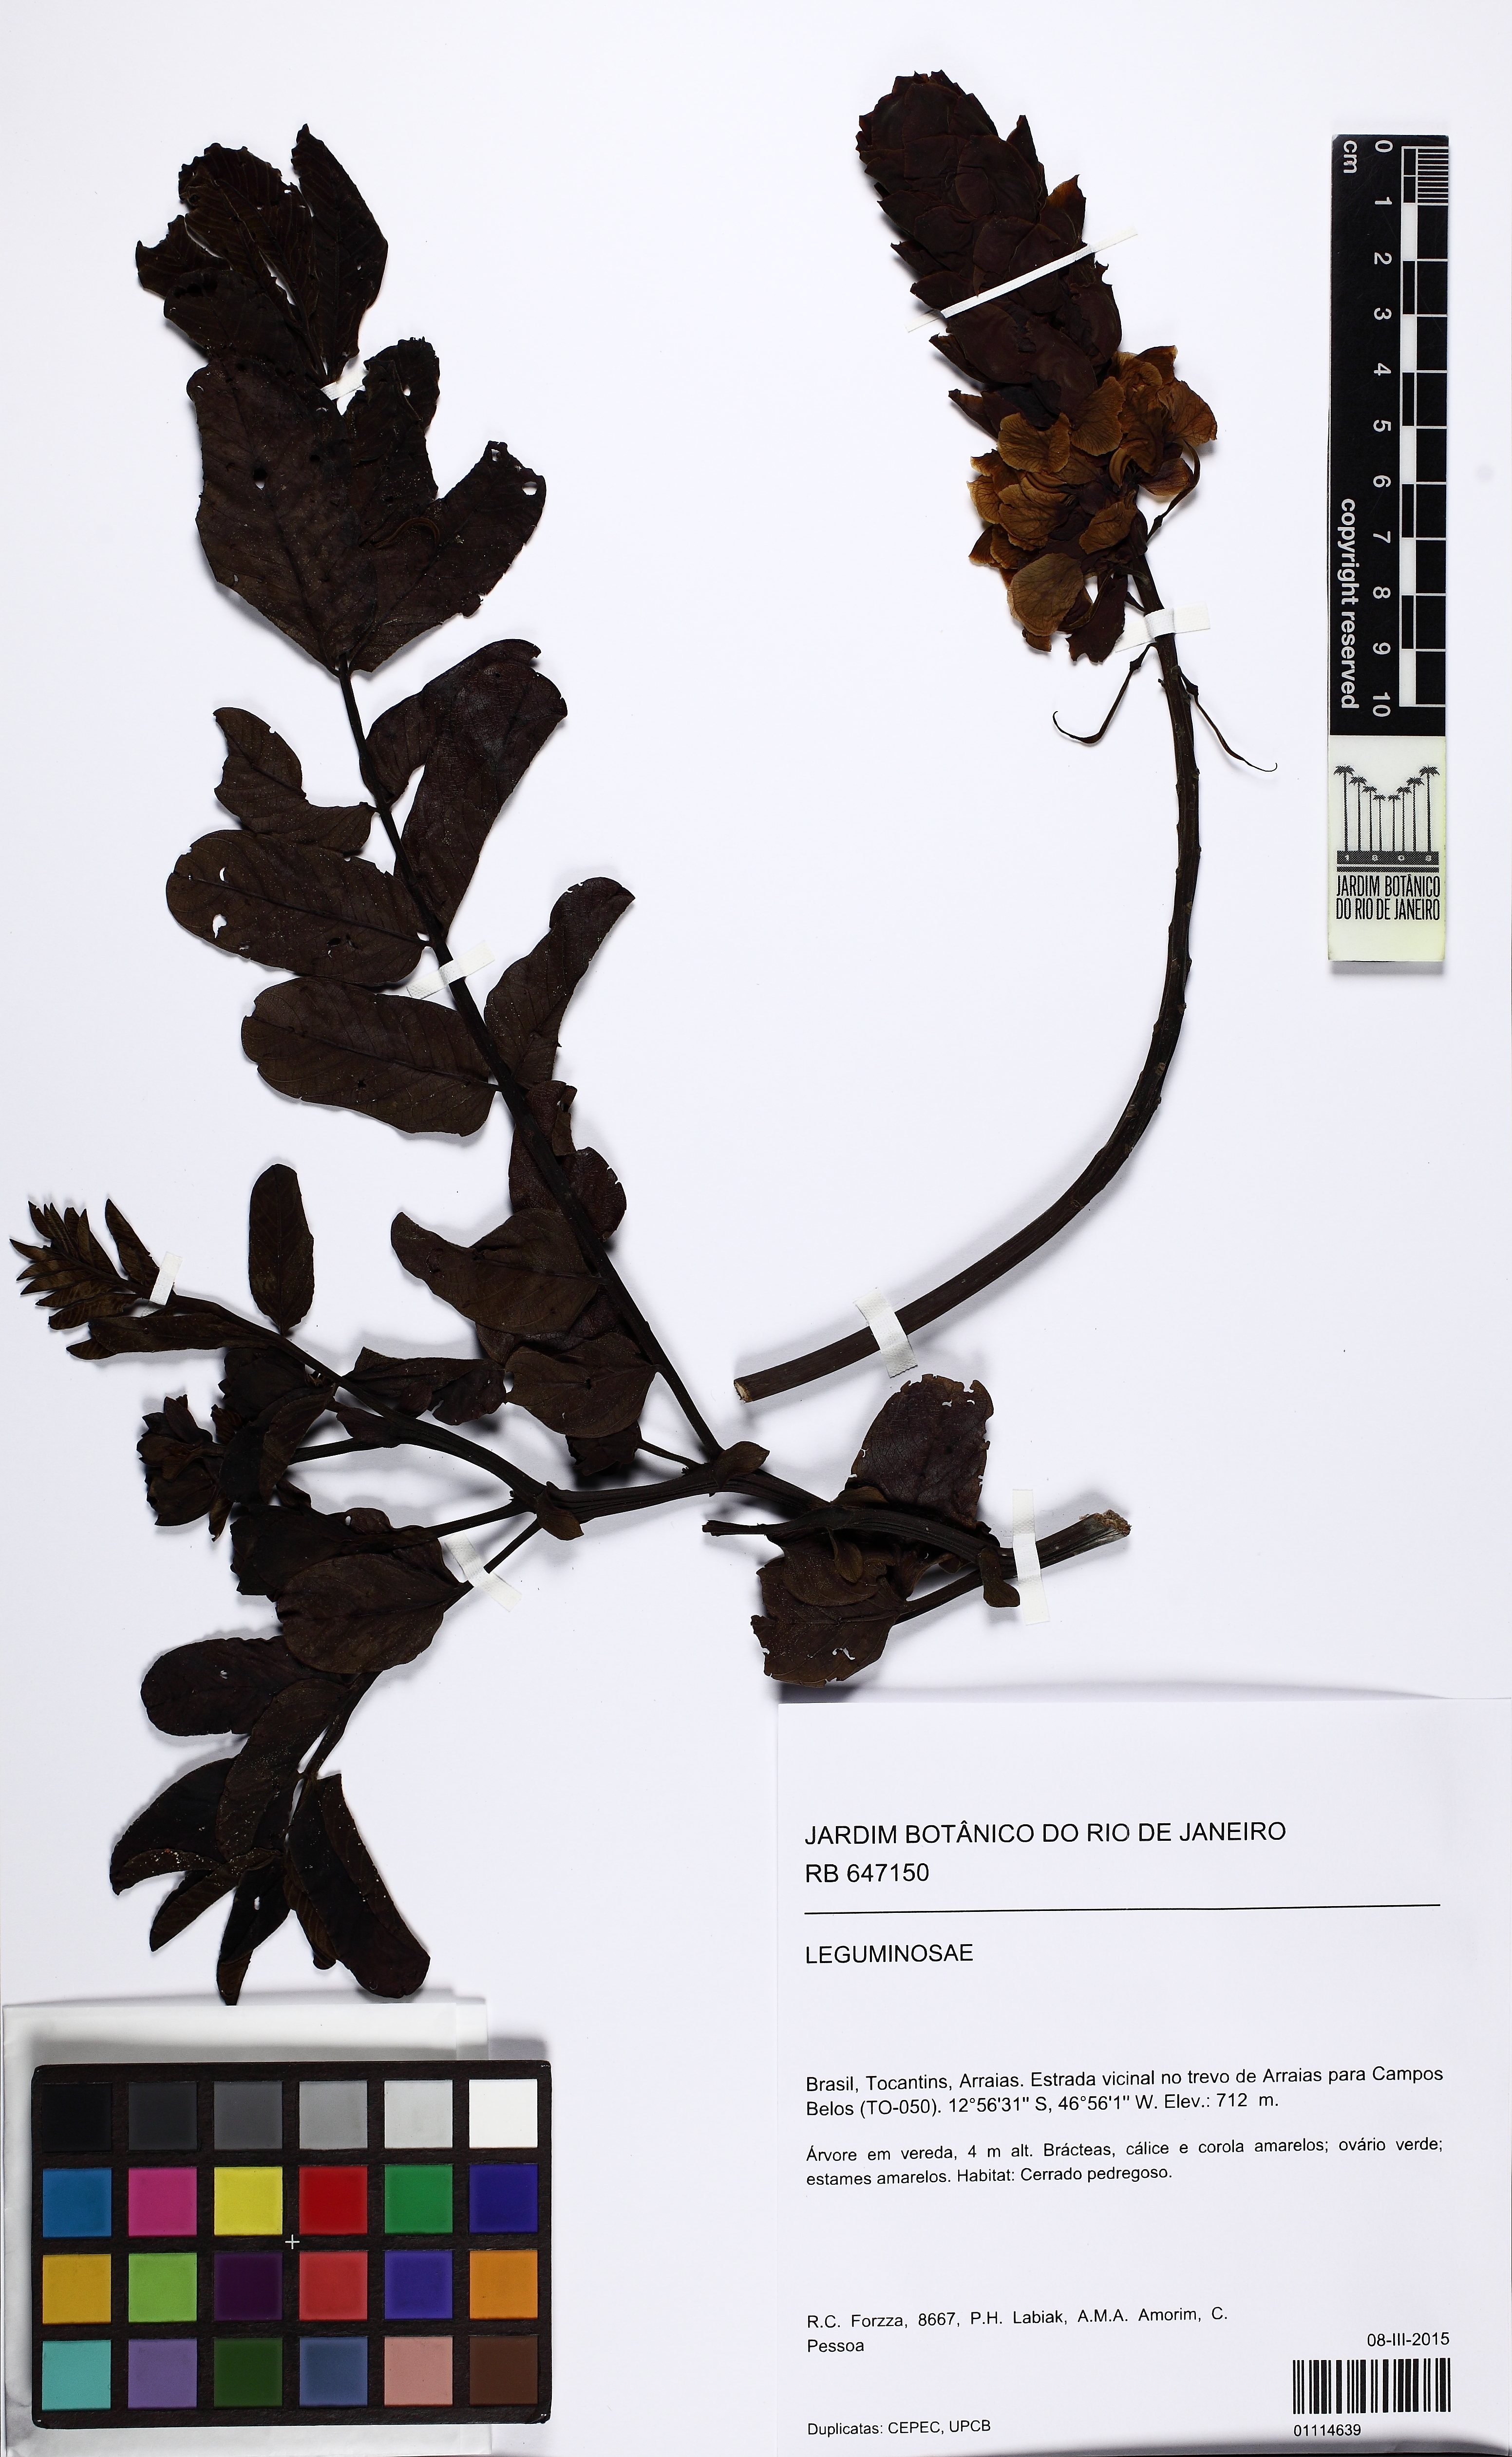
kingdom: Plantae
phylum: Tracheophyta
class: Magnoliopsida
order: Fabales
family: Fabaceae
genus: Senna
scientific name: Senna
